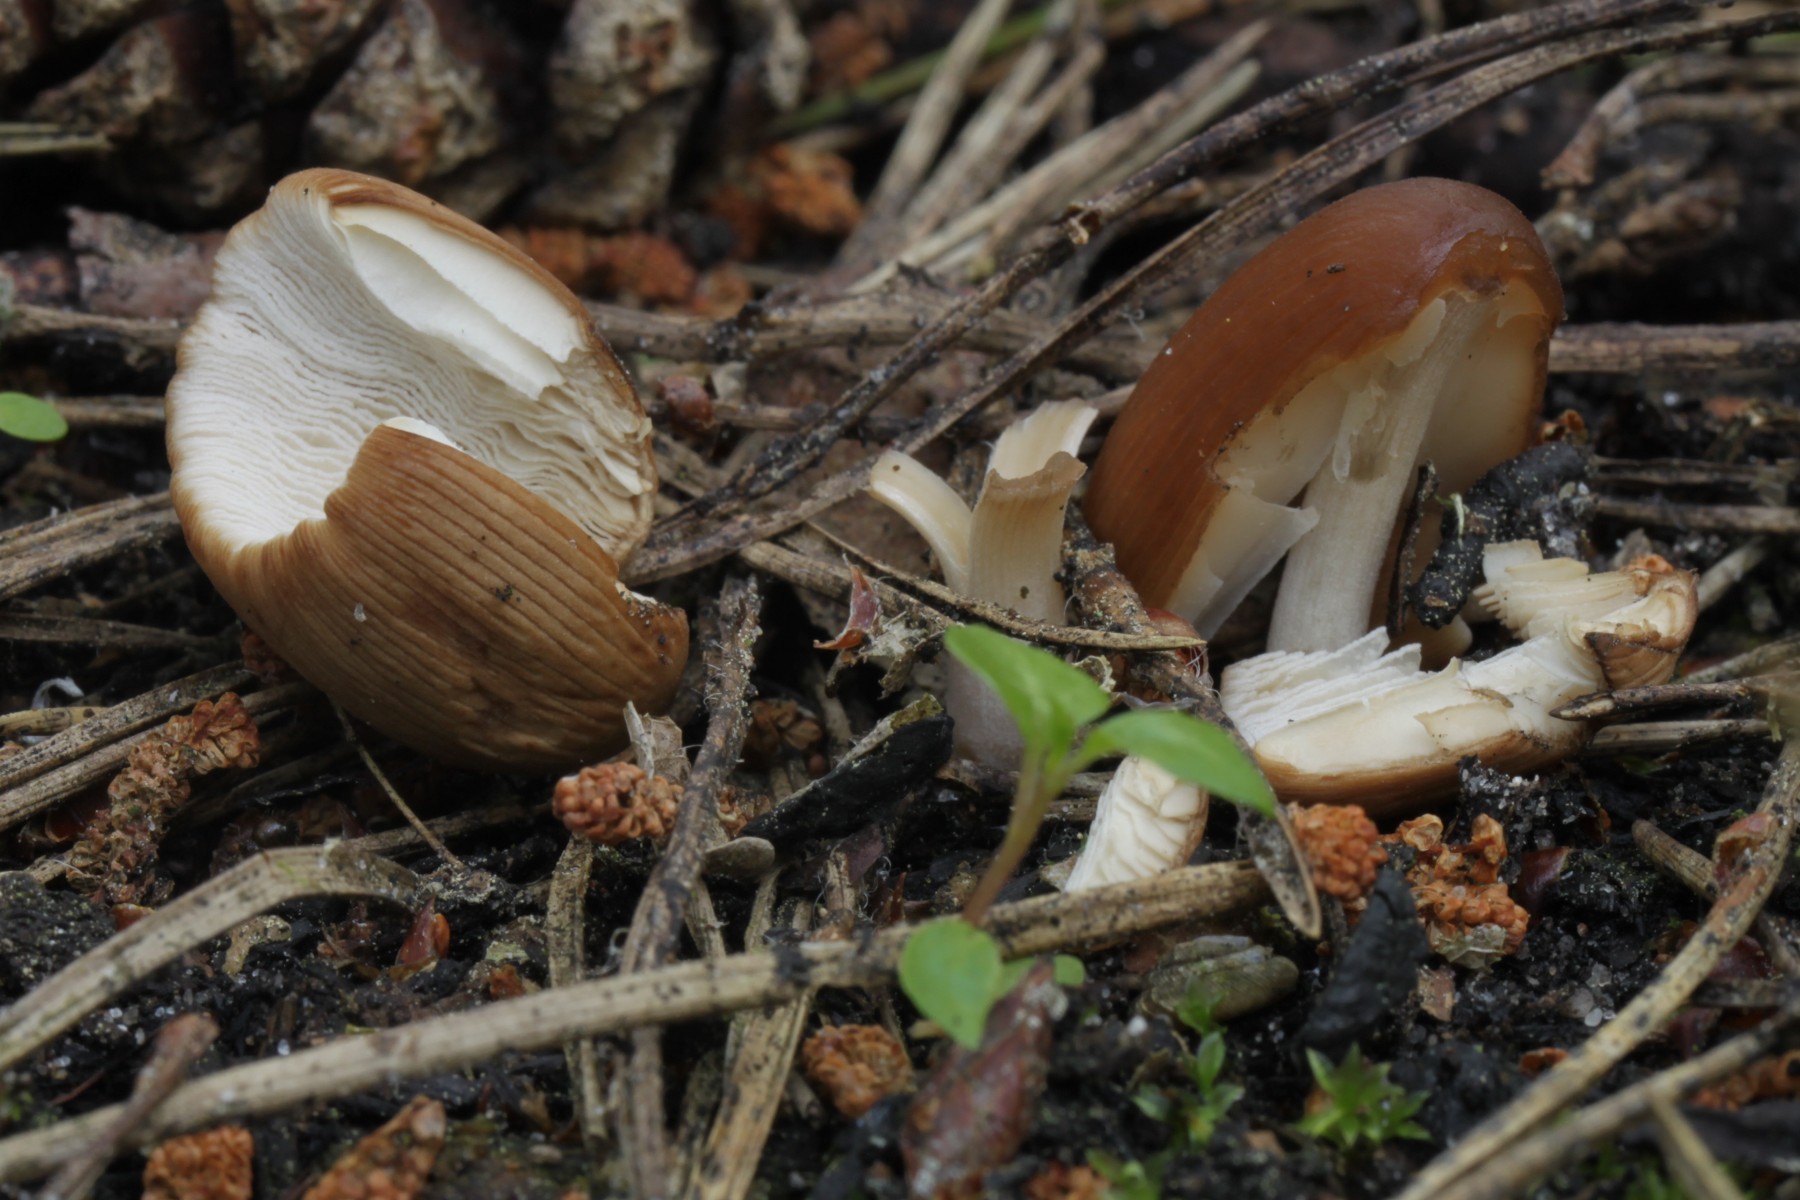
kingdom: Fungi
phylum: Basidiomycota
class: Agaricomycetes
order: Agaricales
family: Psathyrellaceae
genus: Tulosesus
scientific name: Tulosesus angulatus
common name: kul-blækhat
